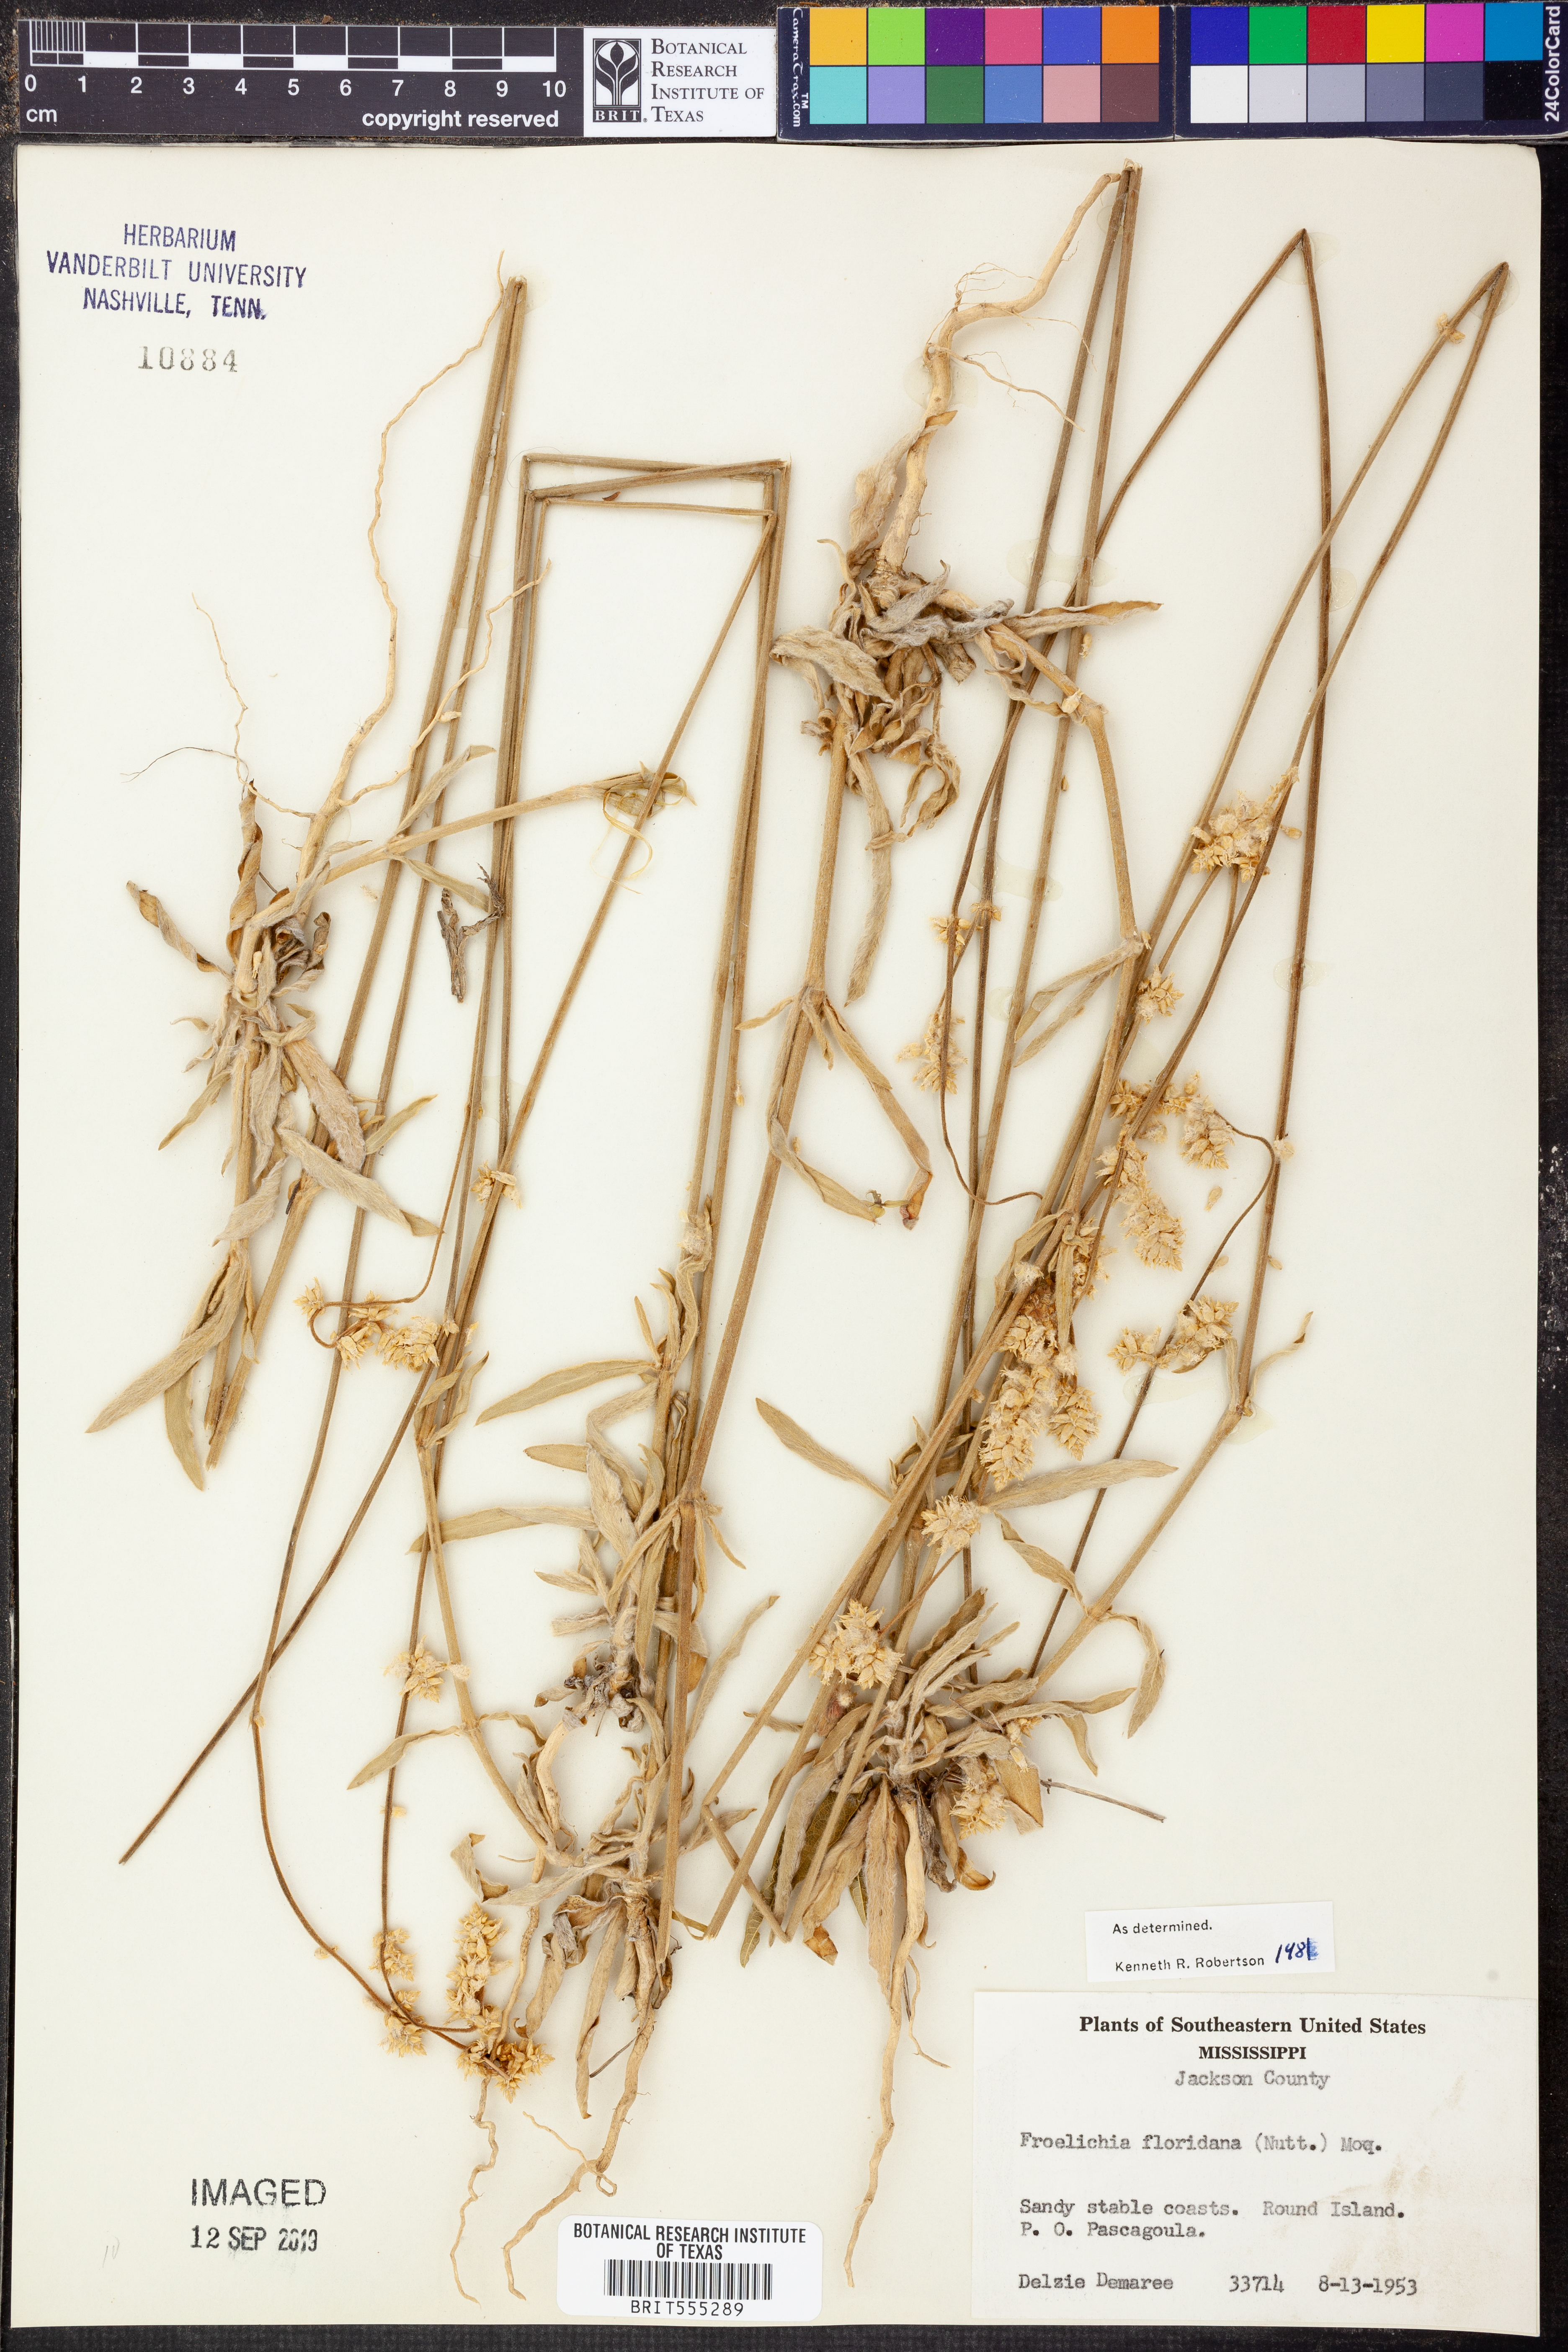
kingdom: Plantae
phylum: Tracheophyta
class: Magnoliopsida
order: Caryophyllales
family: Amaranthaceae
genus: Froelichia
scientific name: Froelichia floridana
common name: Florida snake-cotton
